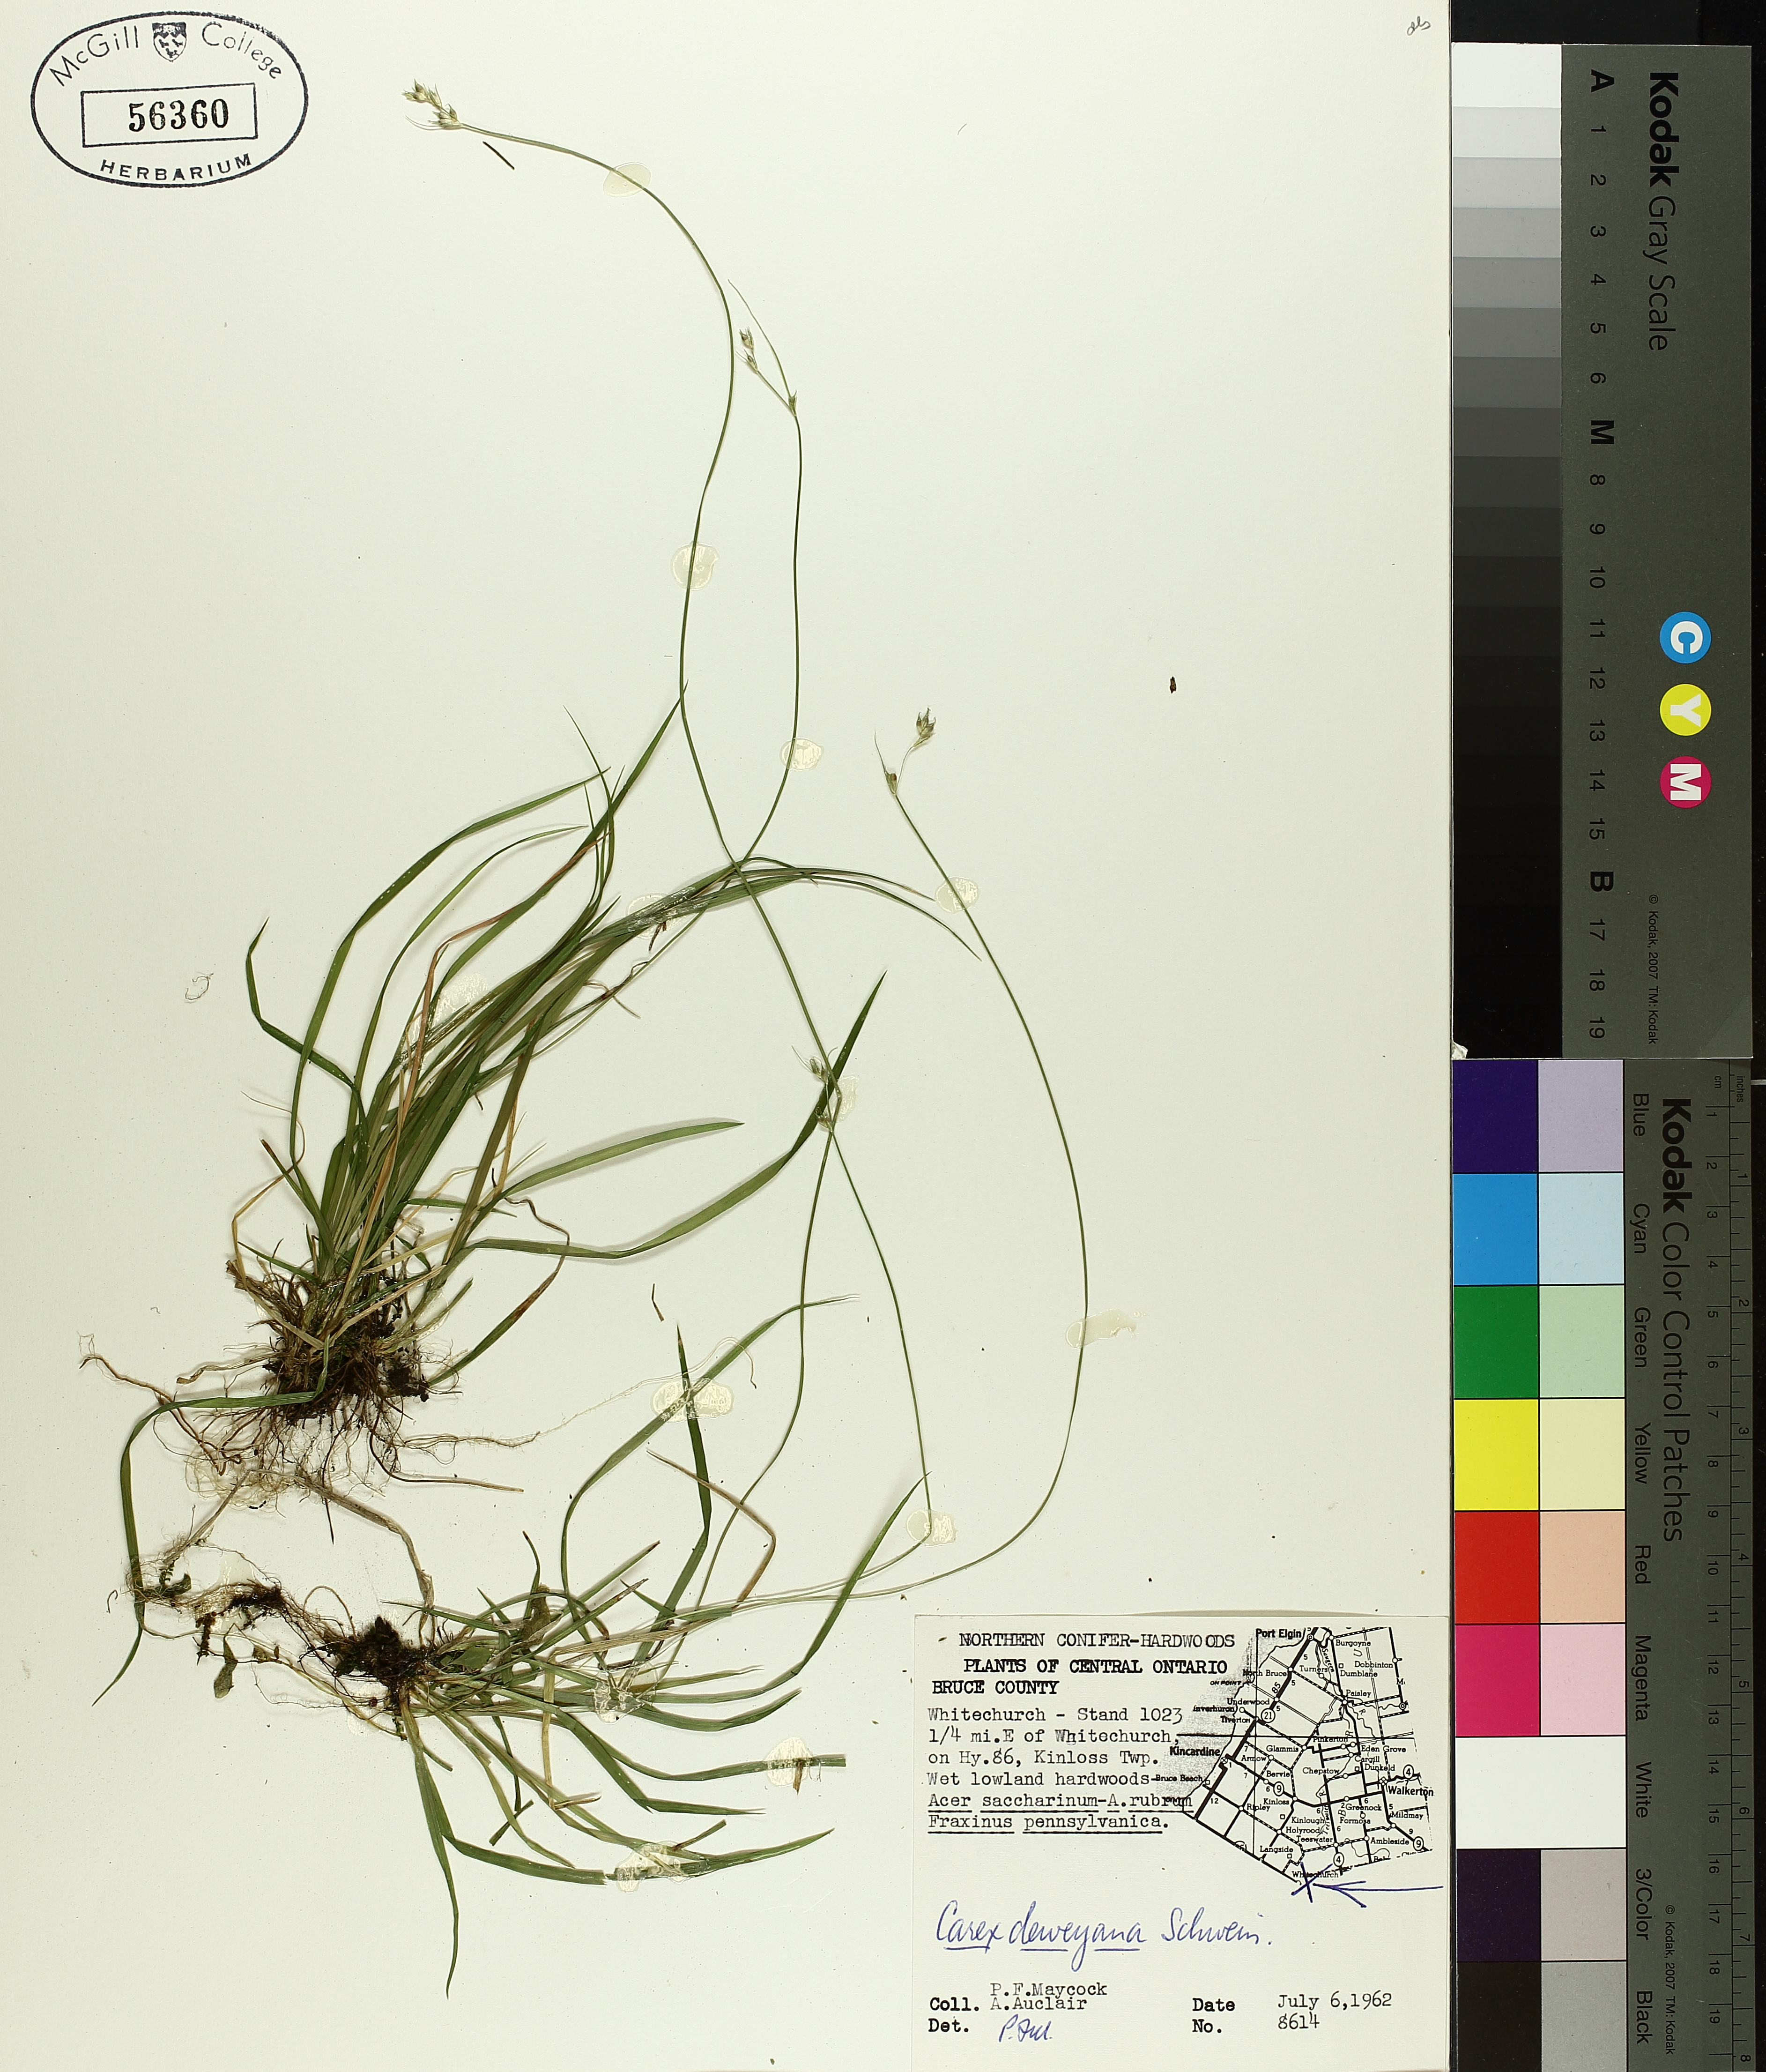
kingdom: Plantae
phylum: Tracheophyta
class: Liliopsida
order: Poales
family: Cyperaceae
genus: Carex
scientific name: Carex deweyana
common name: Dewey's sedge
